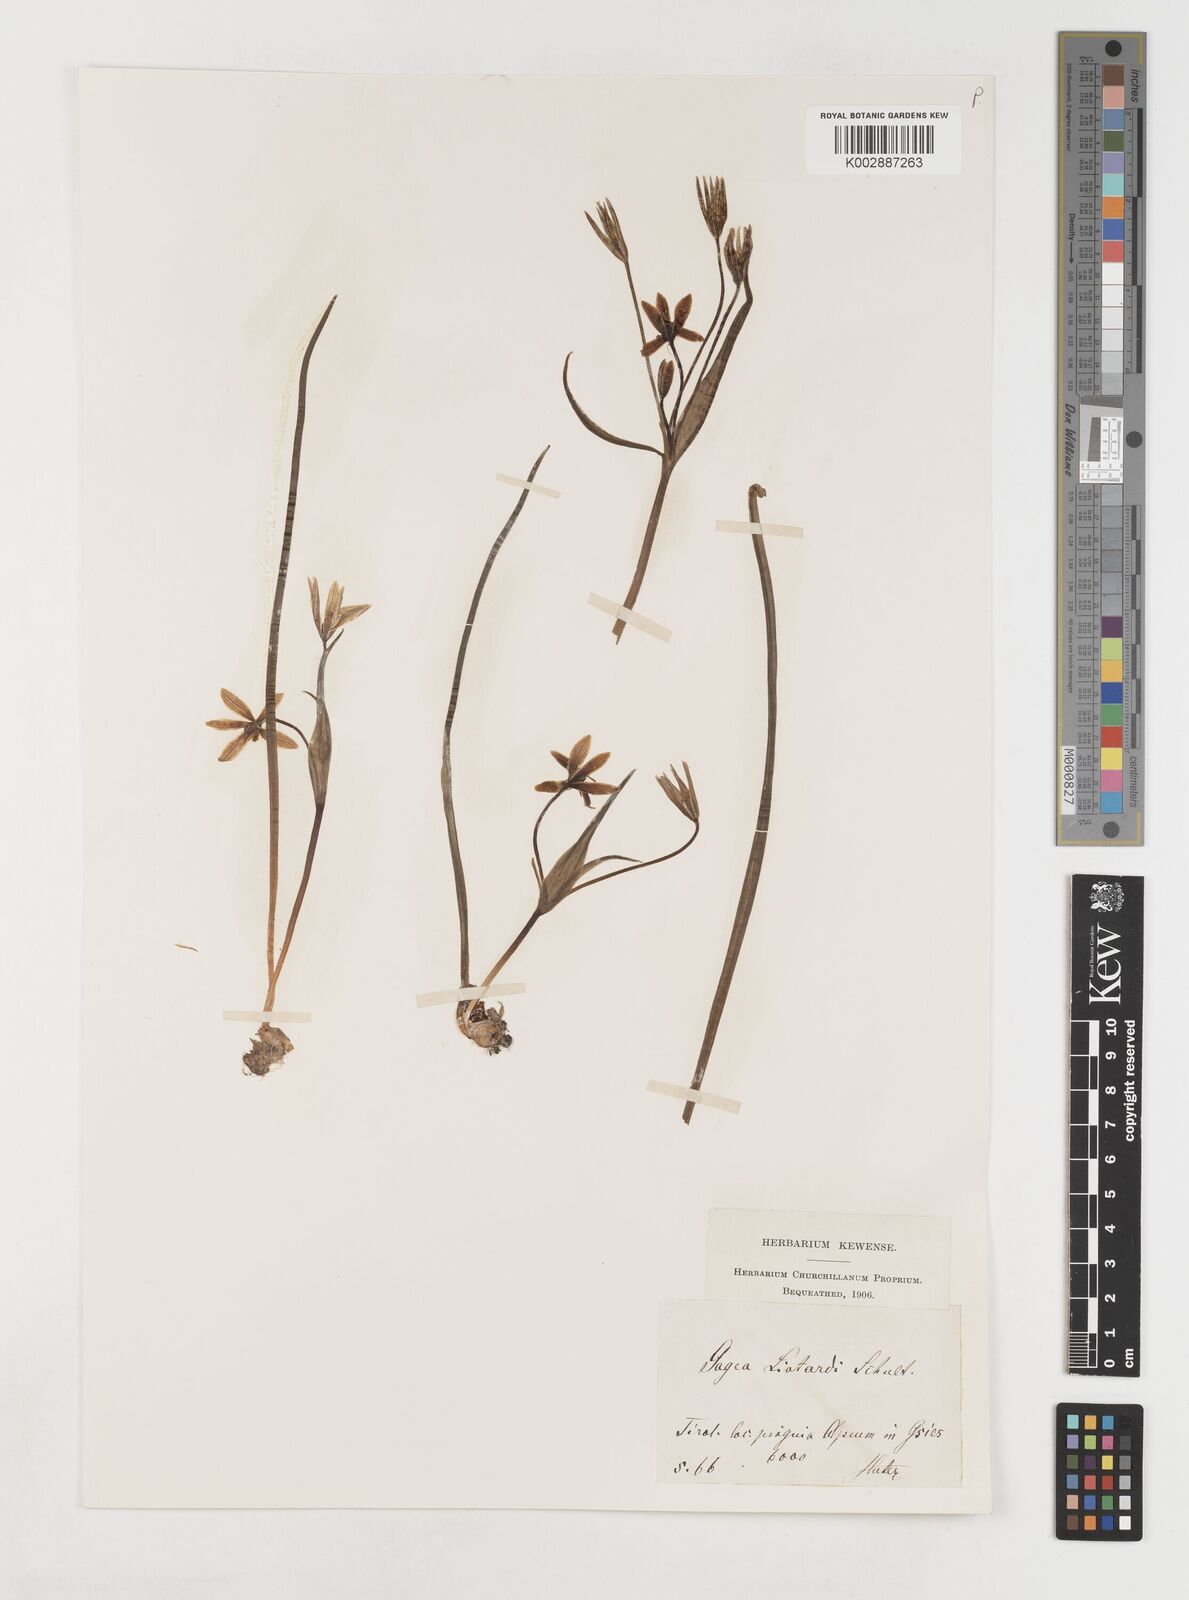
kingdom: Plantae
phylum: Tracheophyta
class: Liliopsida
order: Liliales
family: Liliaceae
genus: Gagea
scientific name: Gagea bohemica
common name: Early star-of-bethlehem
